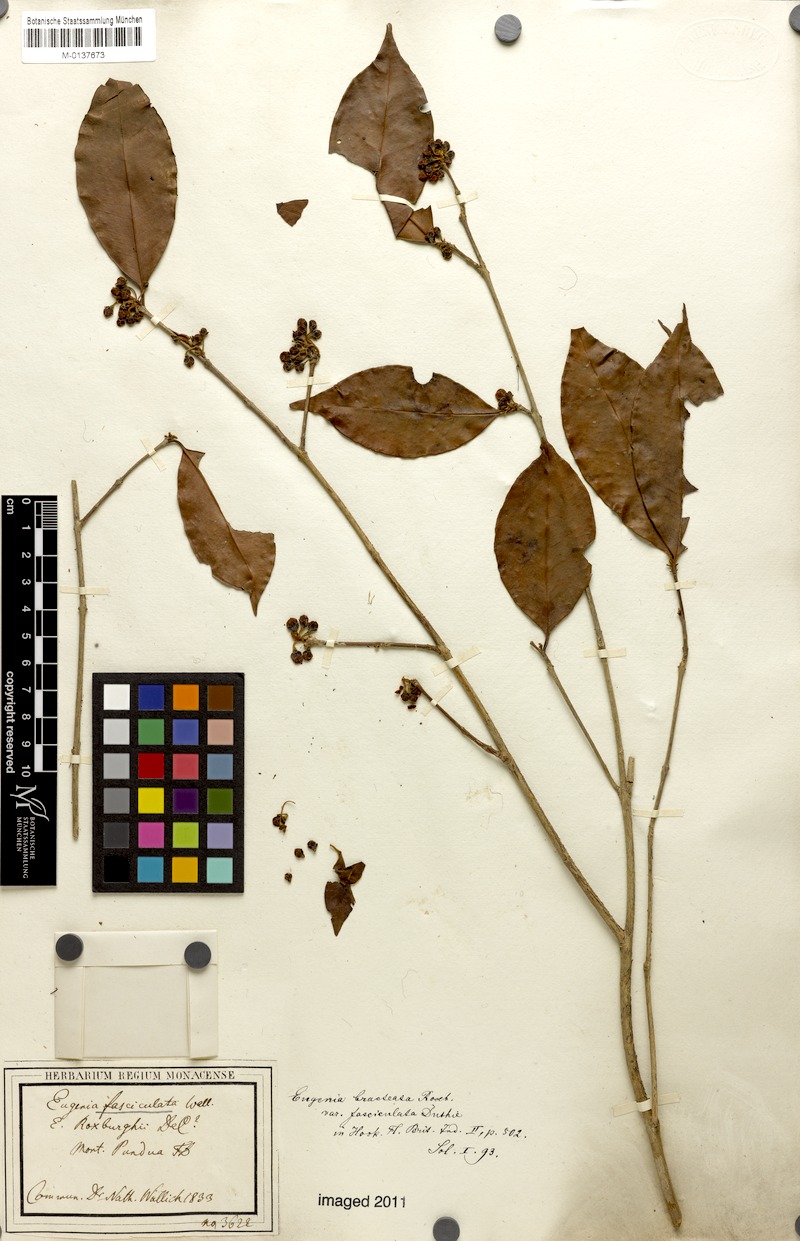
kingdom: Plantae
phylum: Tracheophyta
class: Magnoliopsida
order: Myrtales
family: Myrtaceae
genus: Eugenia
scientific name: Eugenia roxburghii
